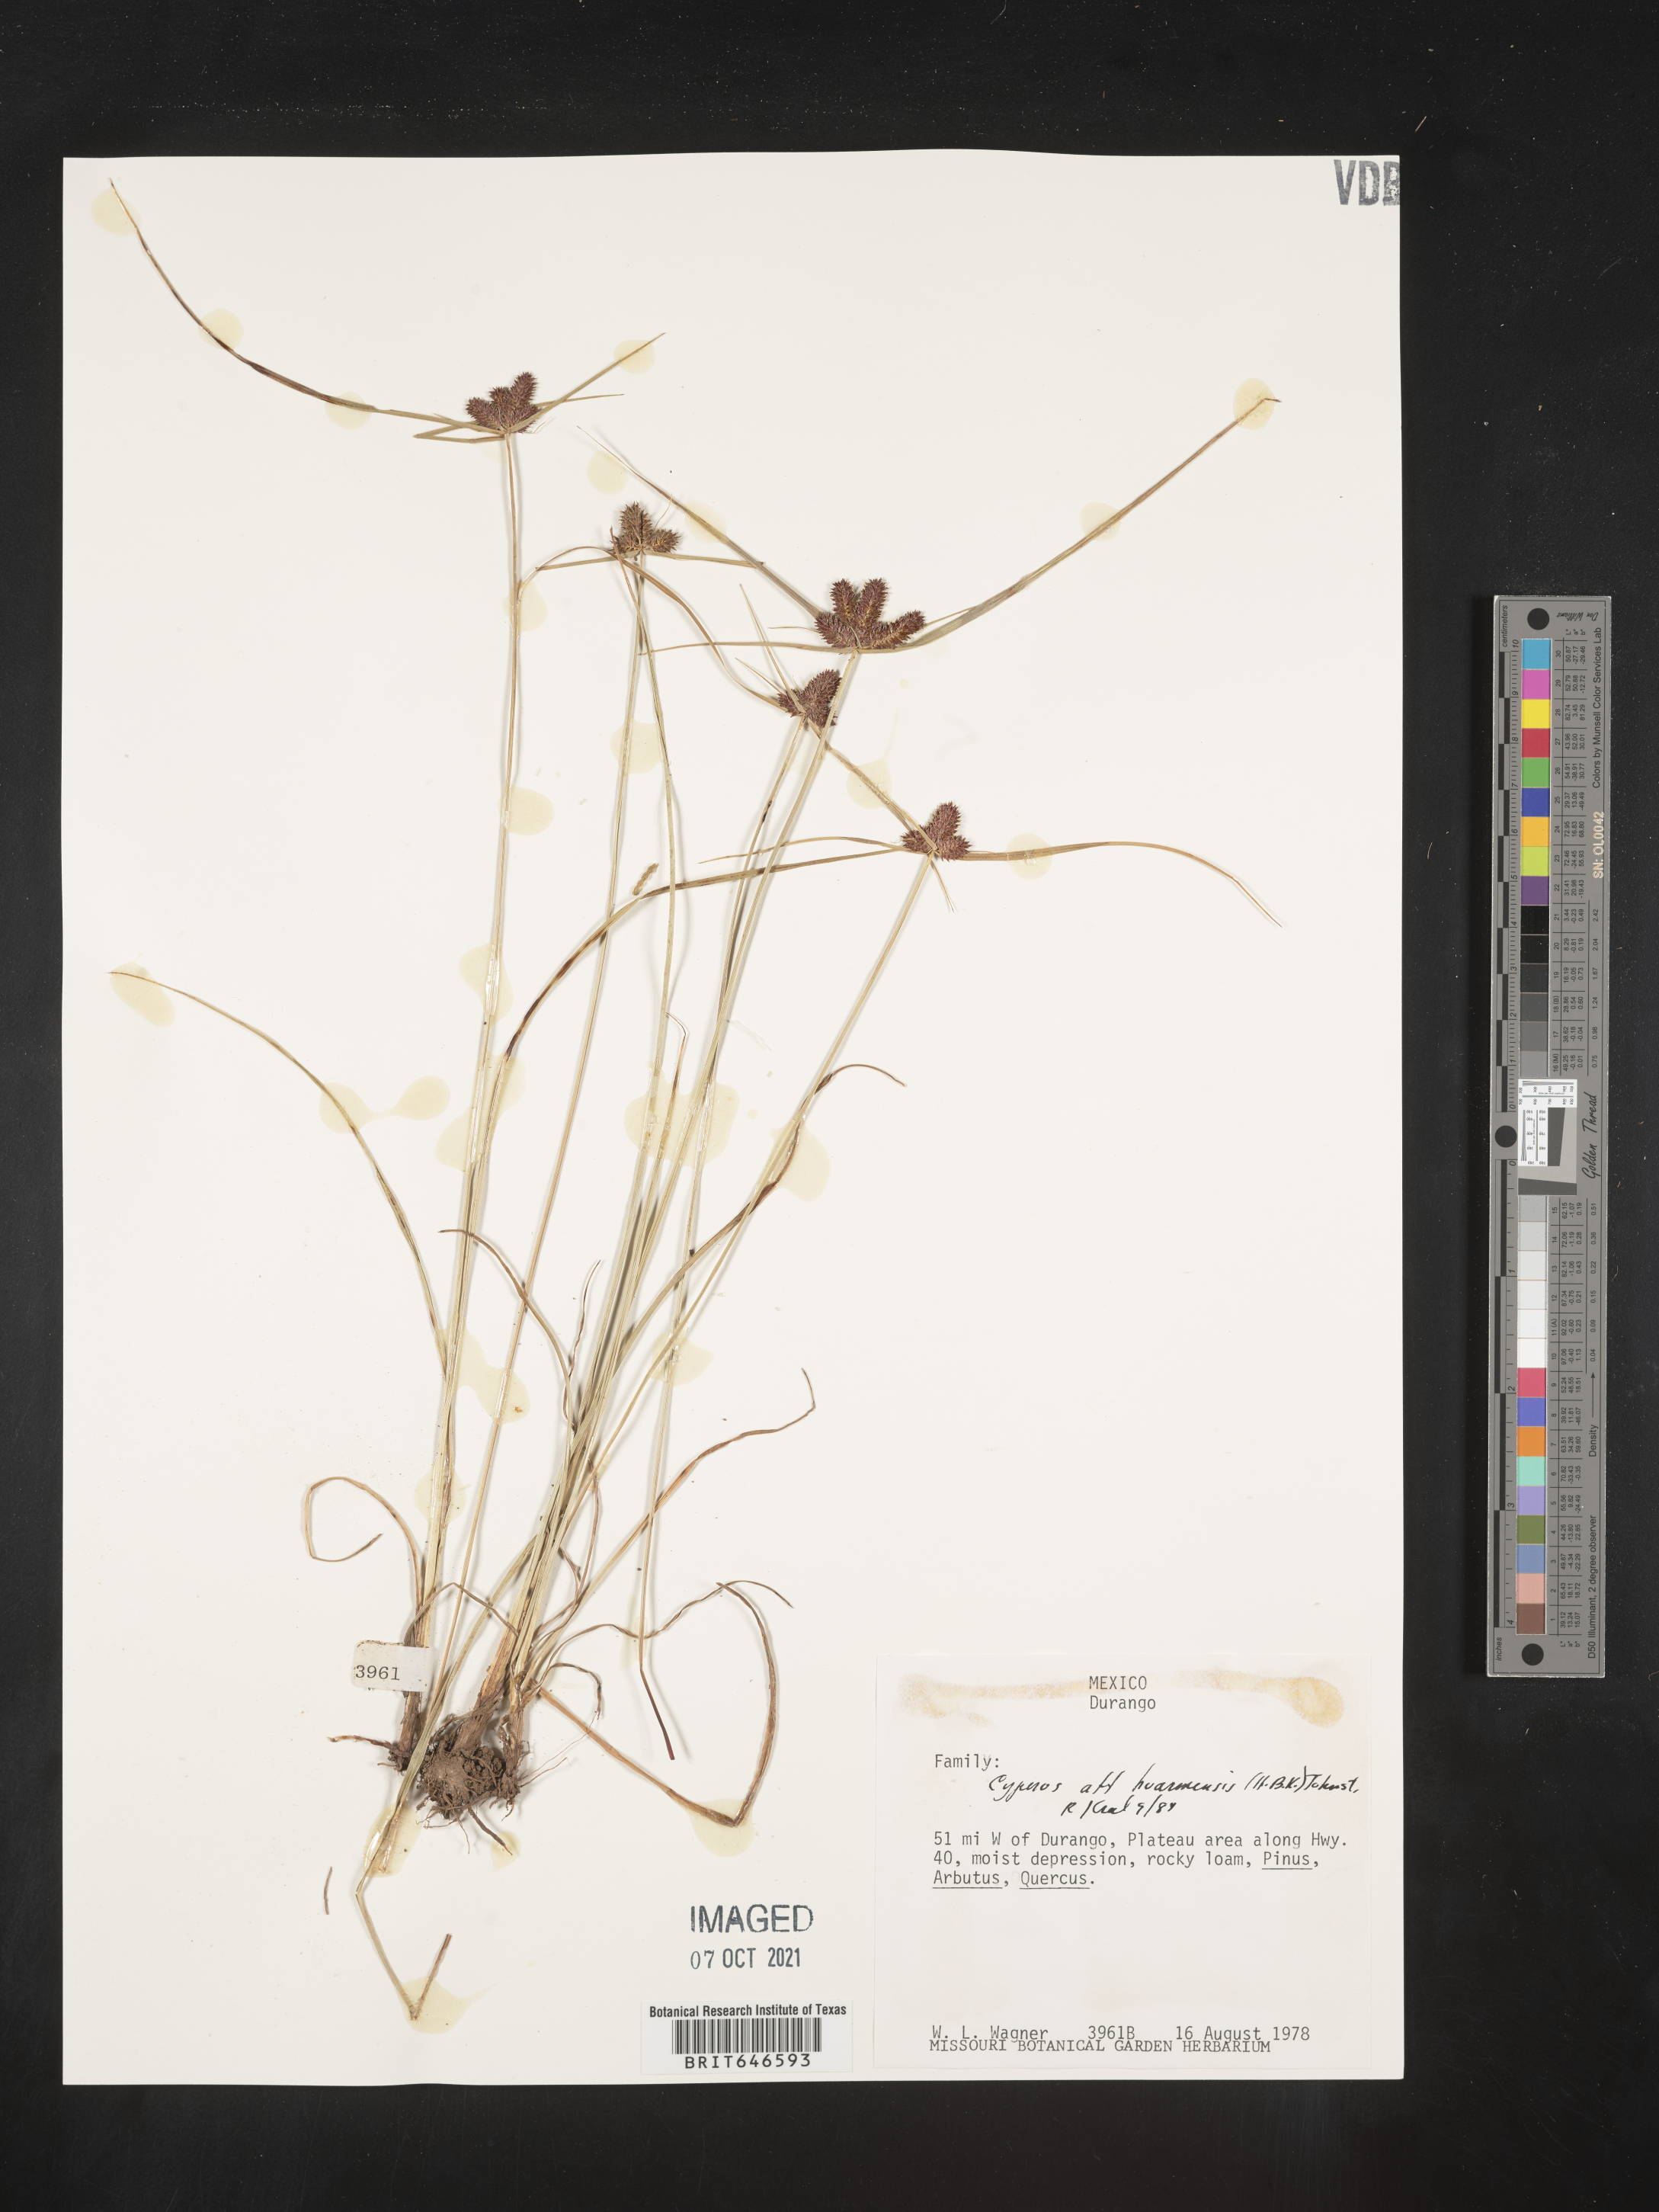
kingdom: Plantae
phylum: Tracheophyta
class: Liliopsida
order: Poales
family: Cyperaceae
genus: Cyperus
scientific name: Cyperus
